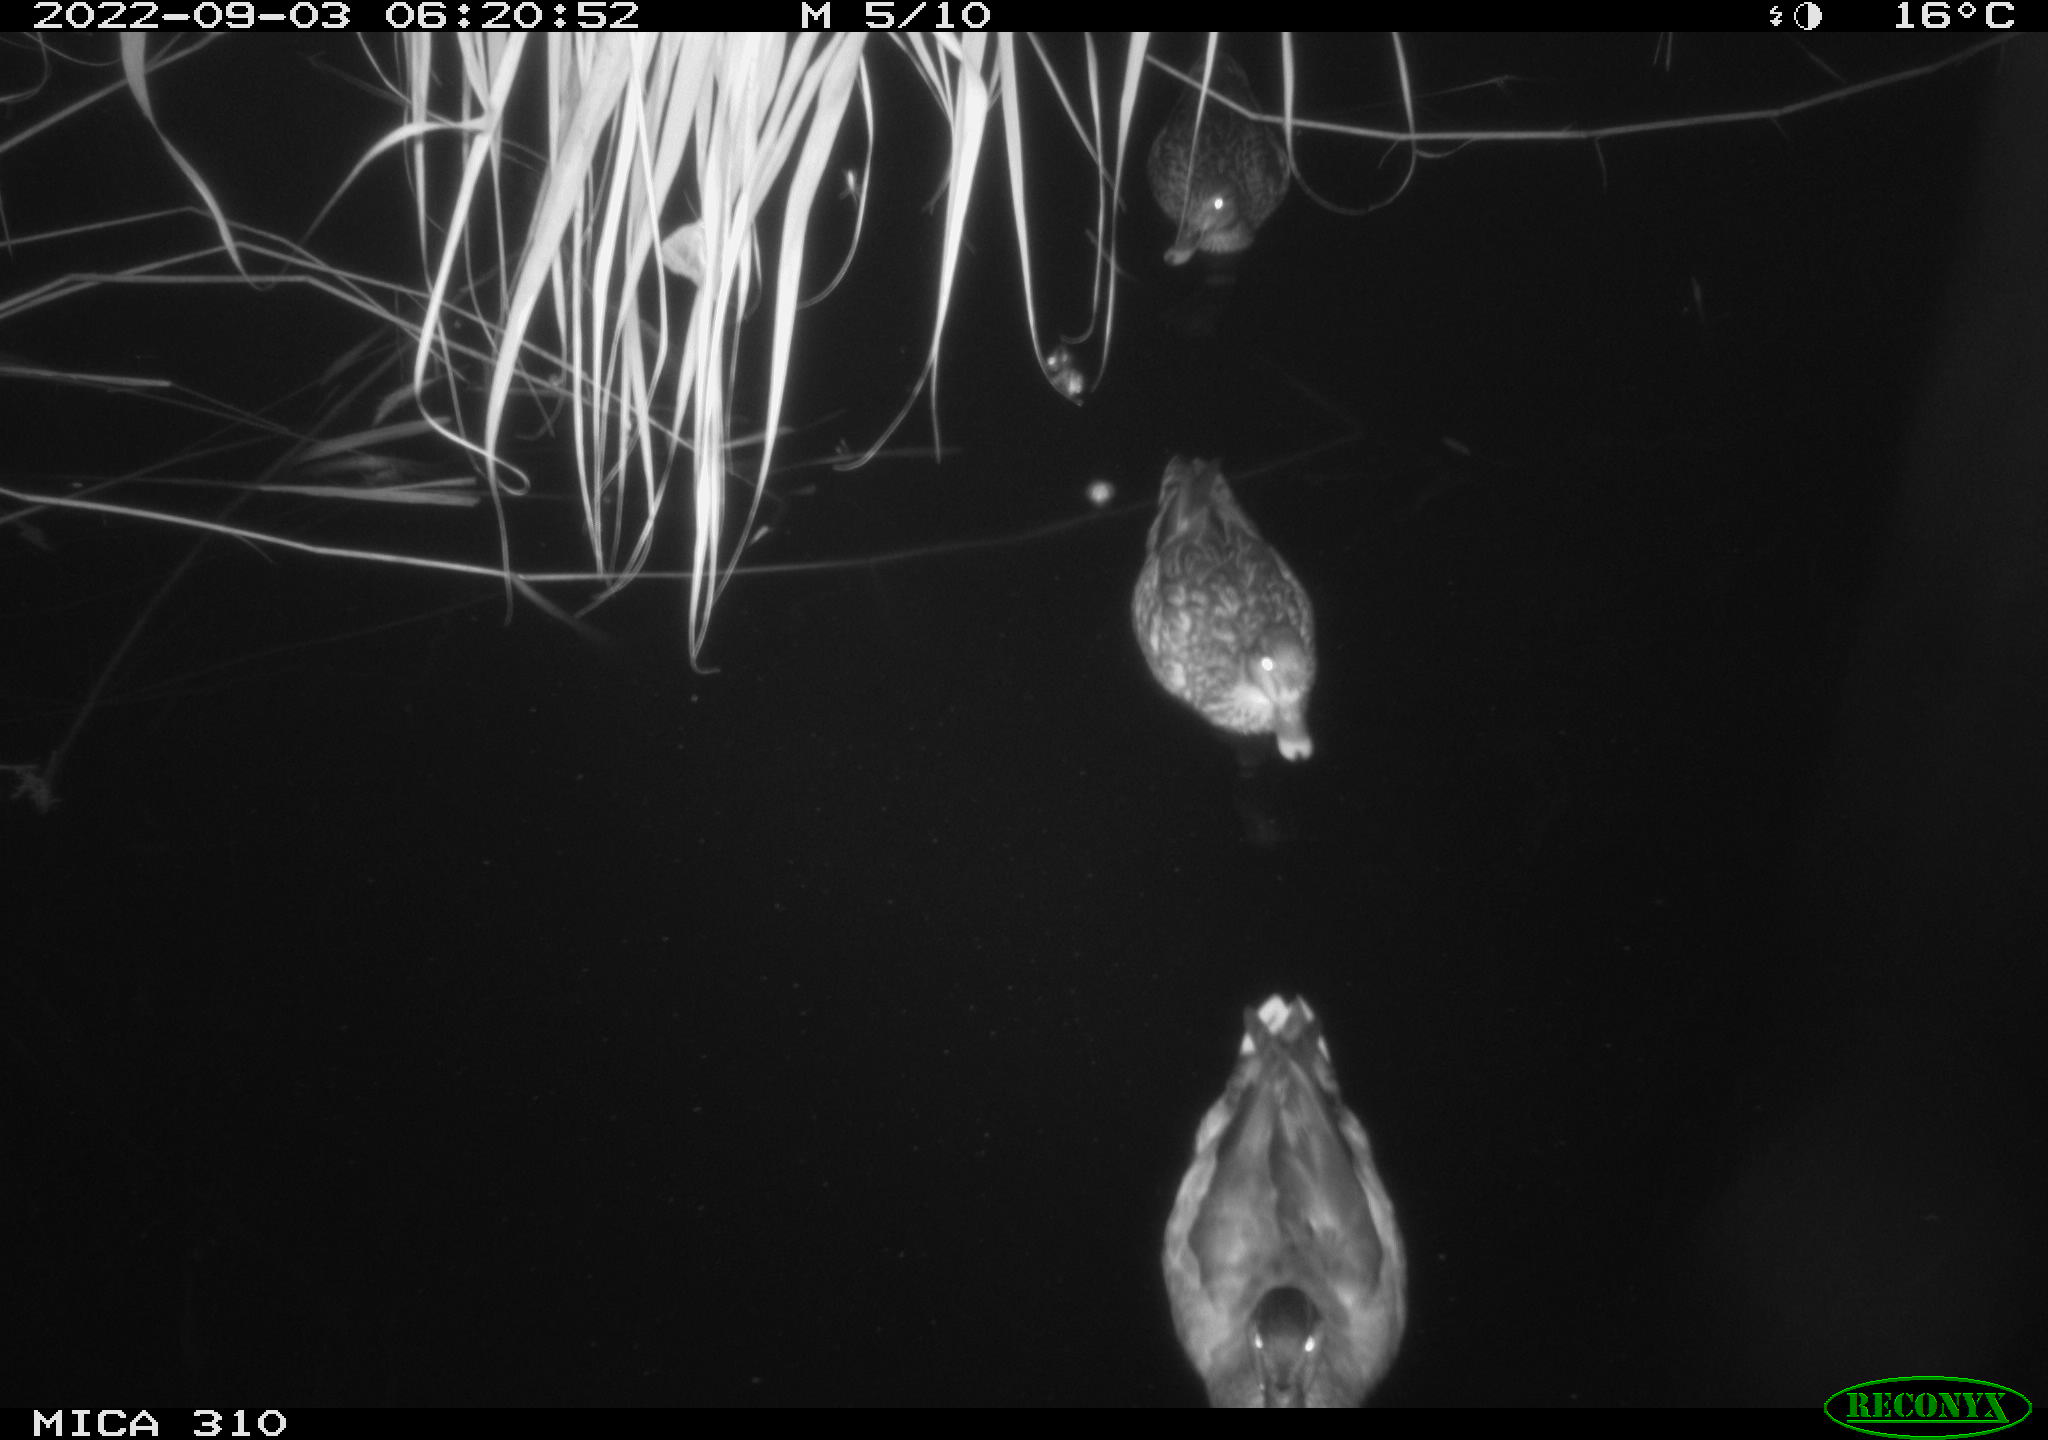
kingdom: Animalia
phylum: Chordata
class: Aves
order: Anseriformes
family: Anatidae
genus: Anas
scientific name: Anas platyrhynchos
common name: Mallard
